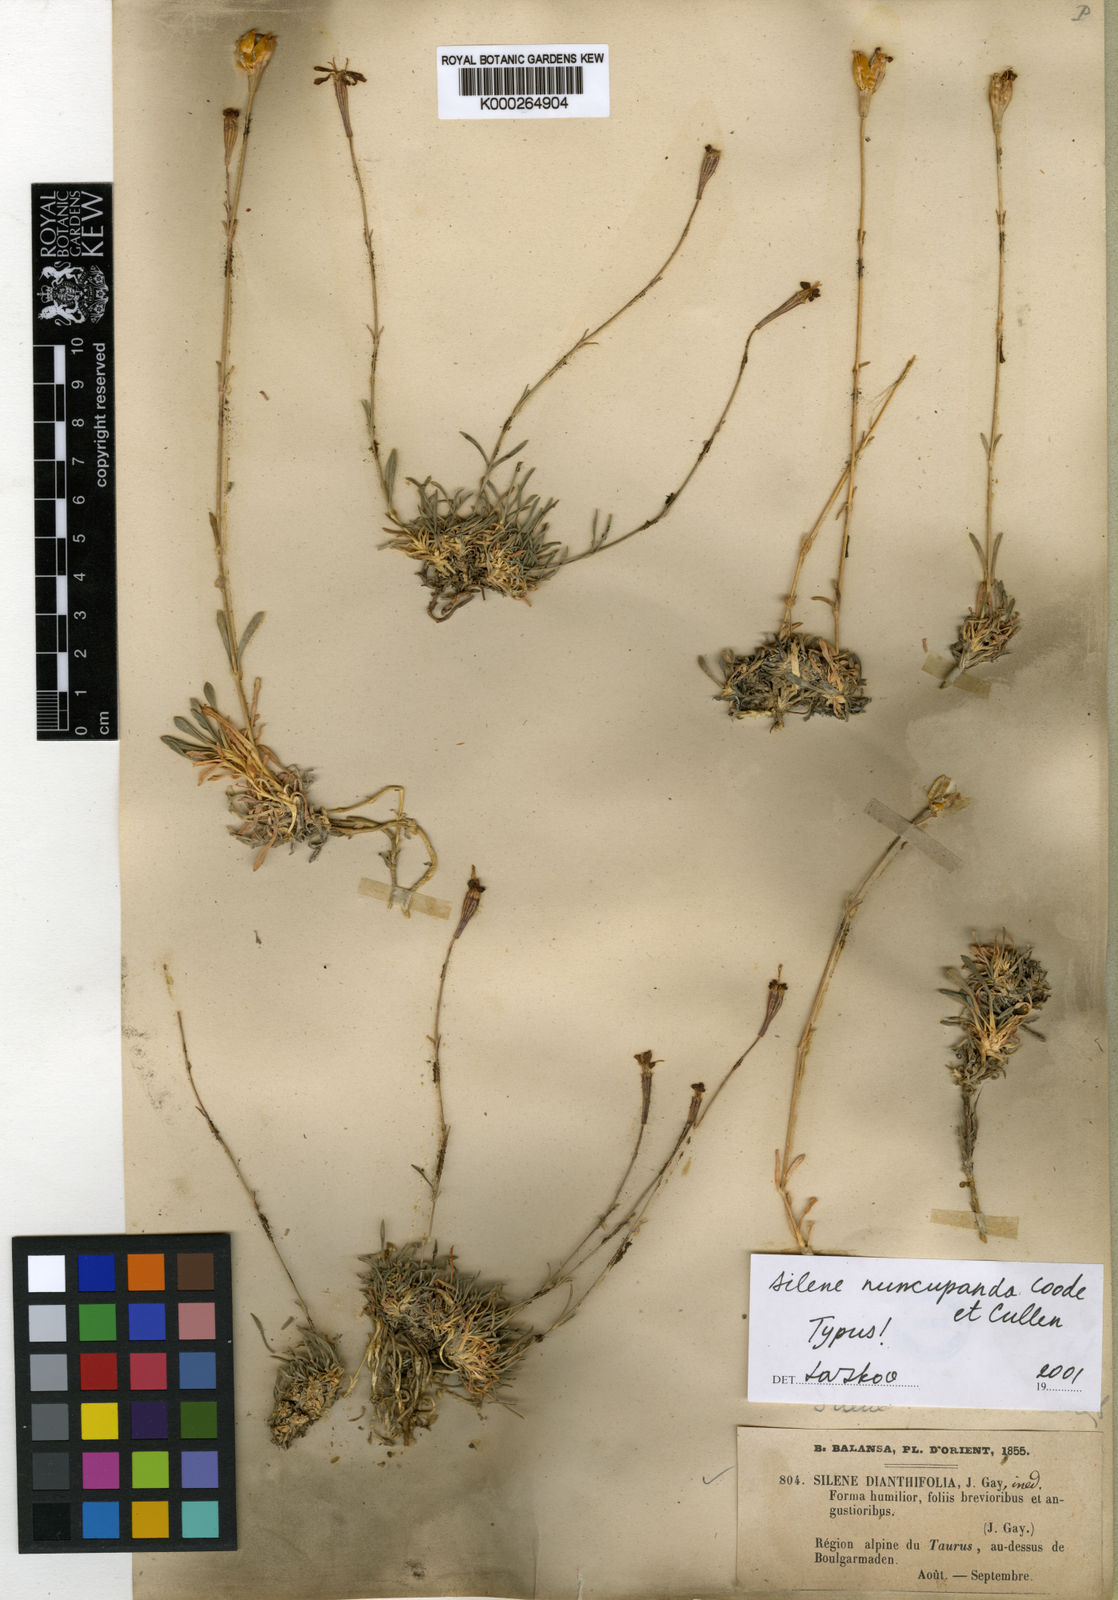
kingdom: Plantae
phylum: Tracheophyta
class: Magnoliopsida
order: Caryophyllales
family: Caryophyllaceae
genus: Silene
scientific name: Silene
